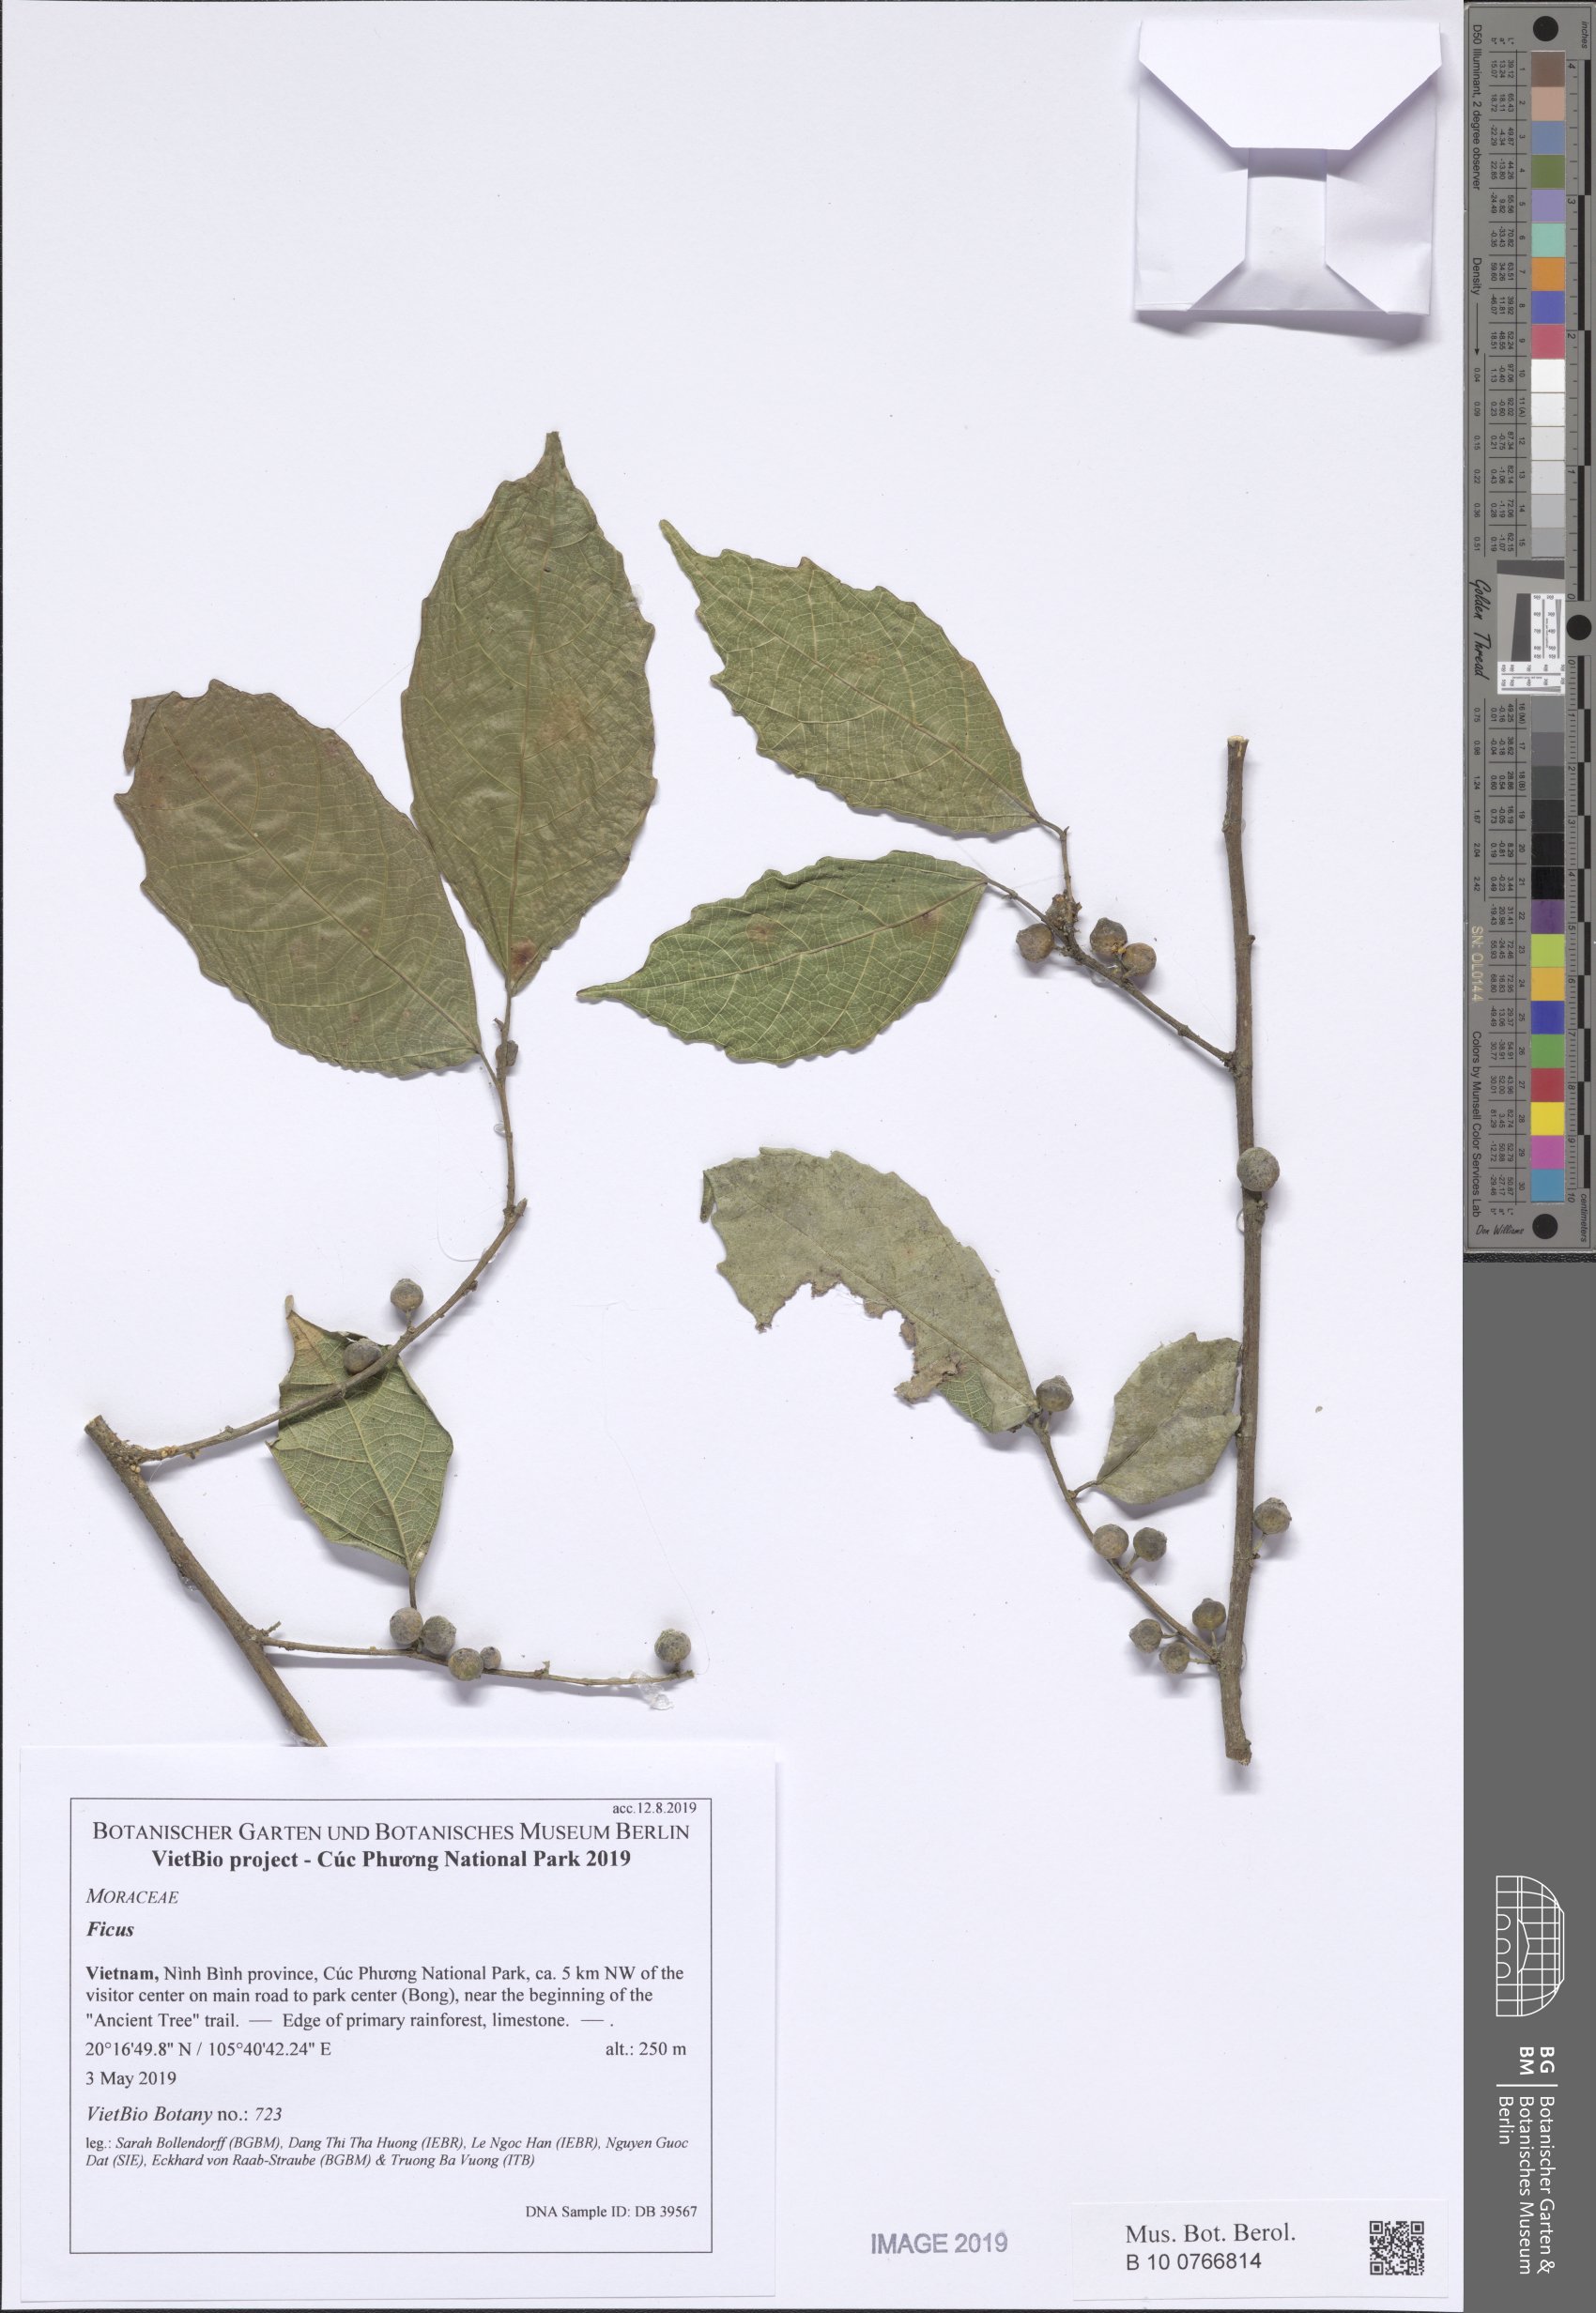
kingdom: Plantae
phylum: Tracheophyta
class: Magnoliopsida
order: Rosales
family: Moraceae
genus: Ficus
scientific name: Ficus cyclophylla
